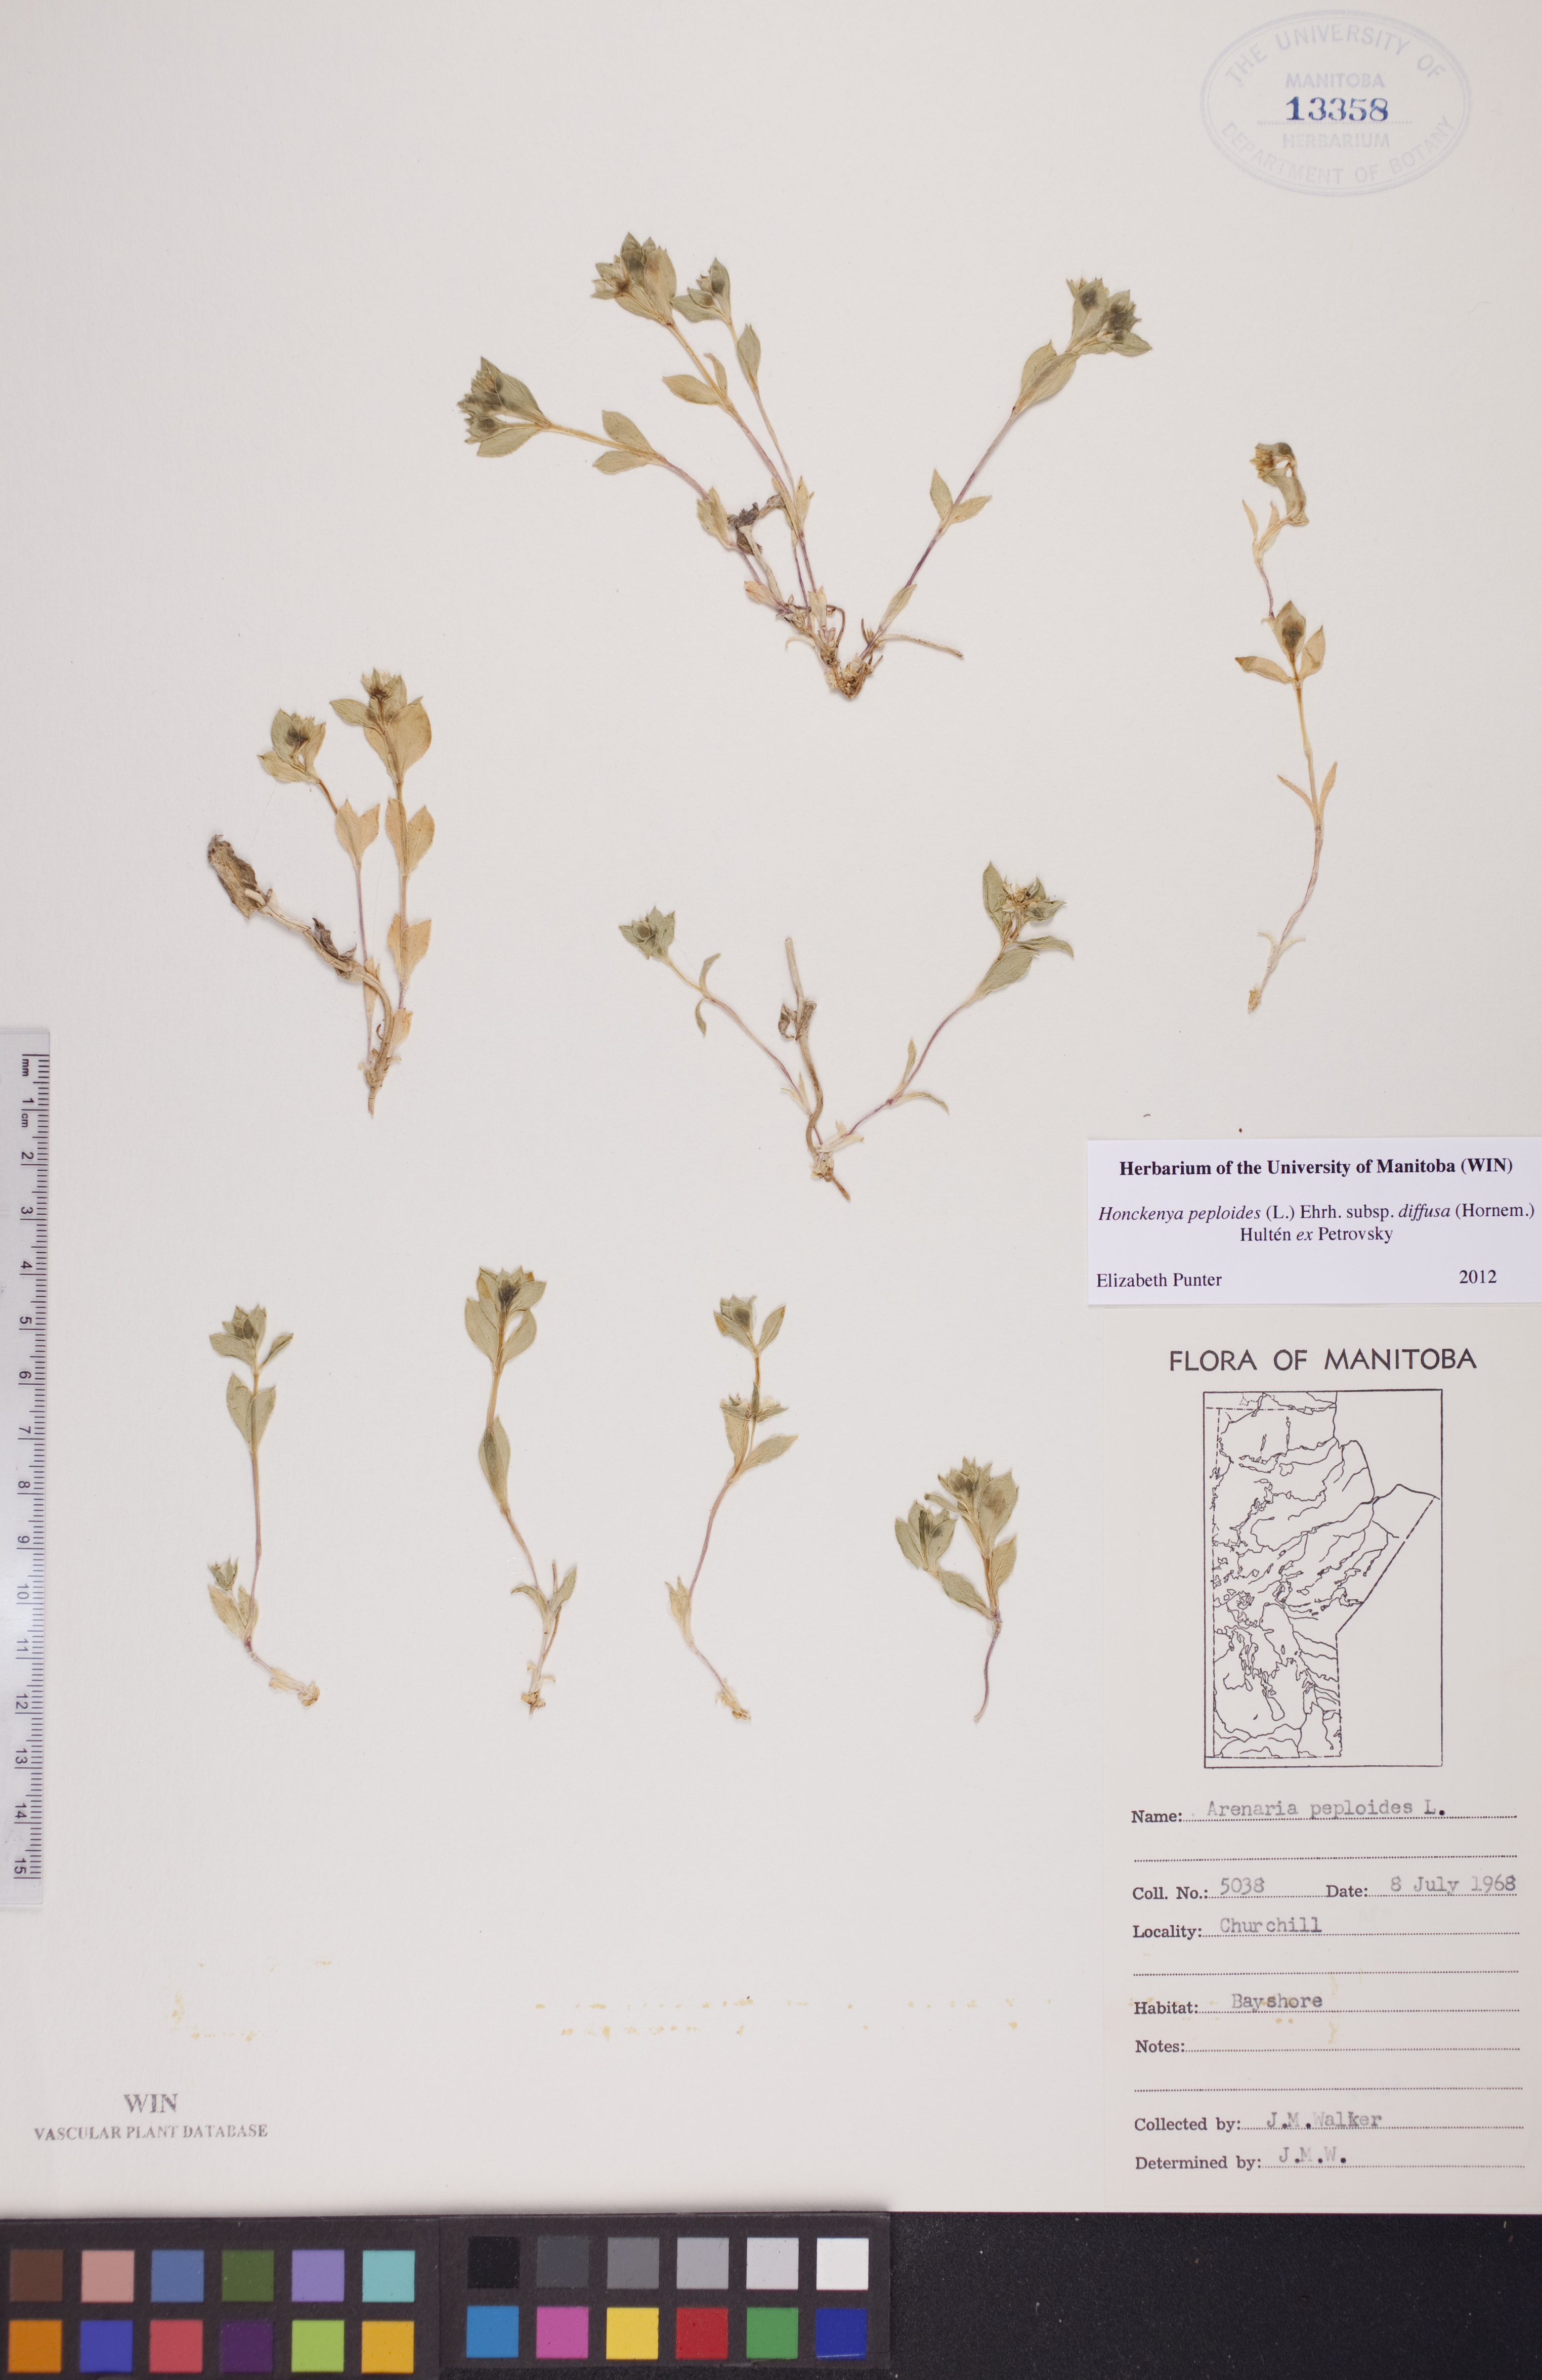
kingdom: Plantae
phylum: Tracheophyta
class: Magnoliopsida
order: Caryophyllales
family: Caryophyllaceae
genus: Honckenya
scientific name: Honckenya peploides
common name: Sea sandwort
